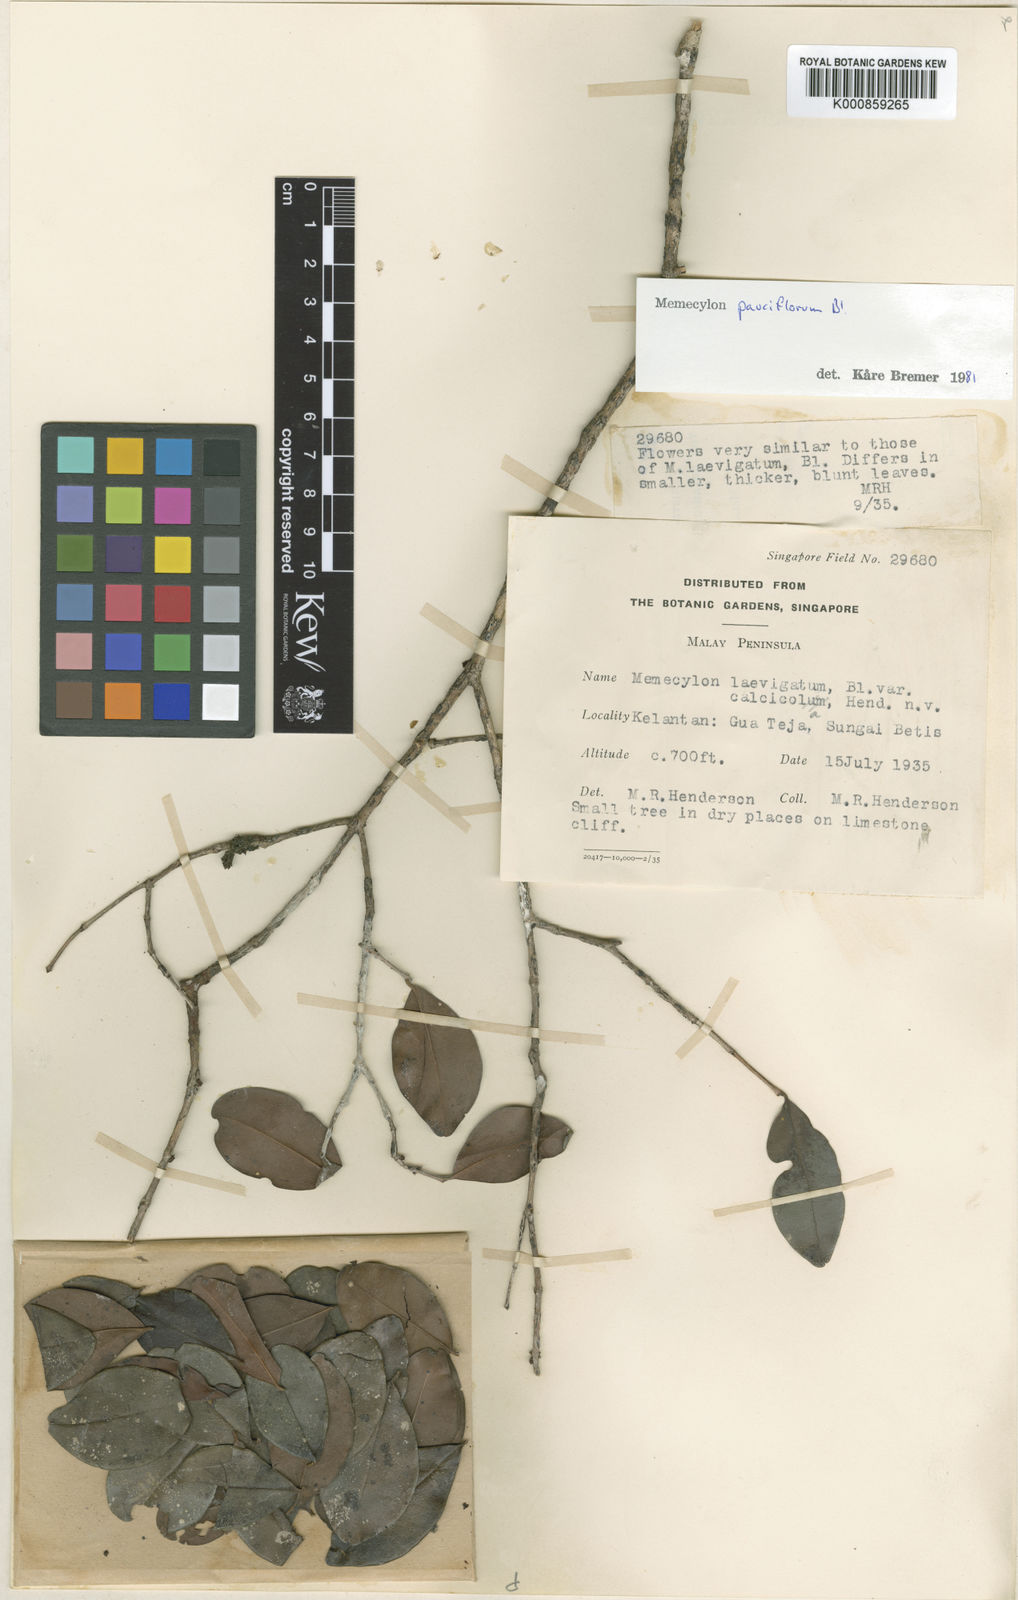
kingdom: Plantae
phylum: Tracheophyta
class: Magnoliopsida
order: Myrtales
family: Melastomataceae
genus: Memecylon
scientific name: Memecylon pauciflorum
